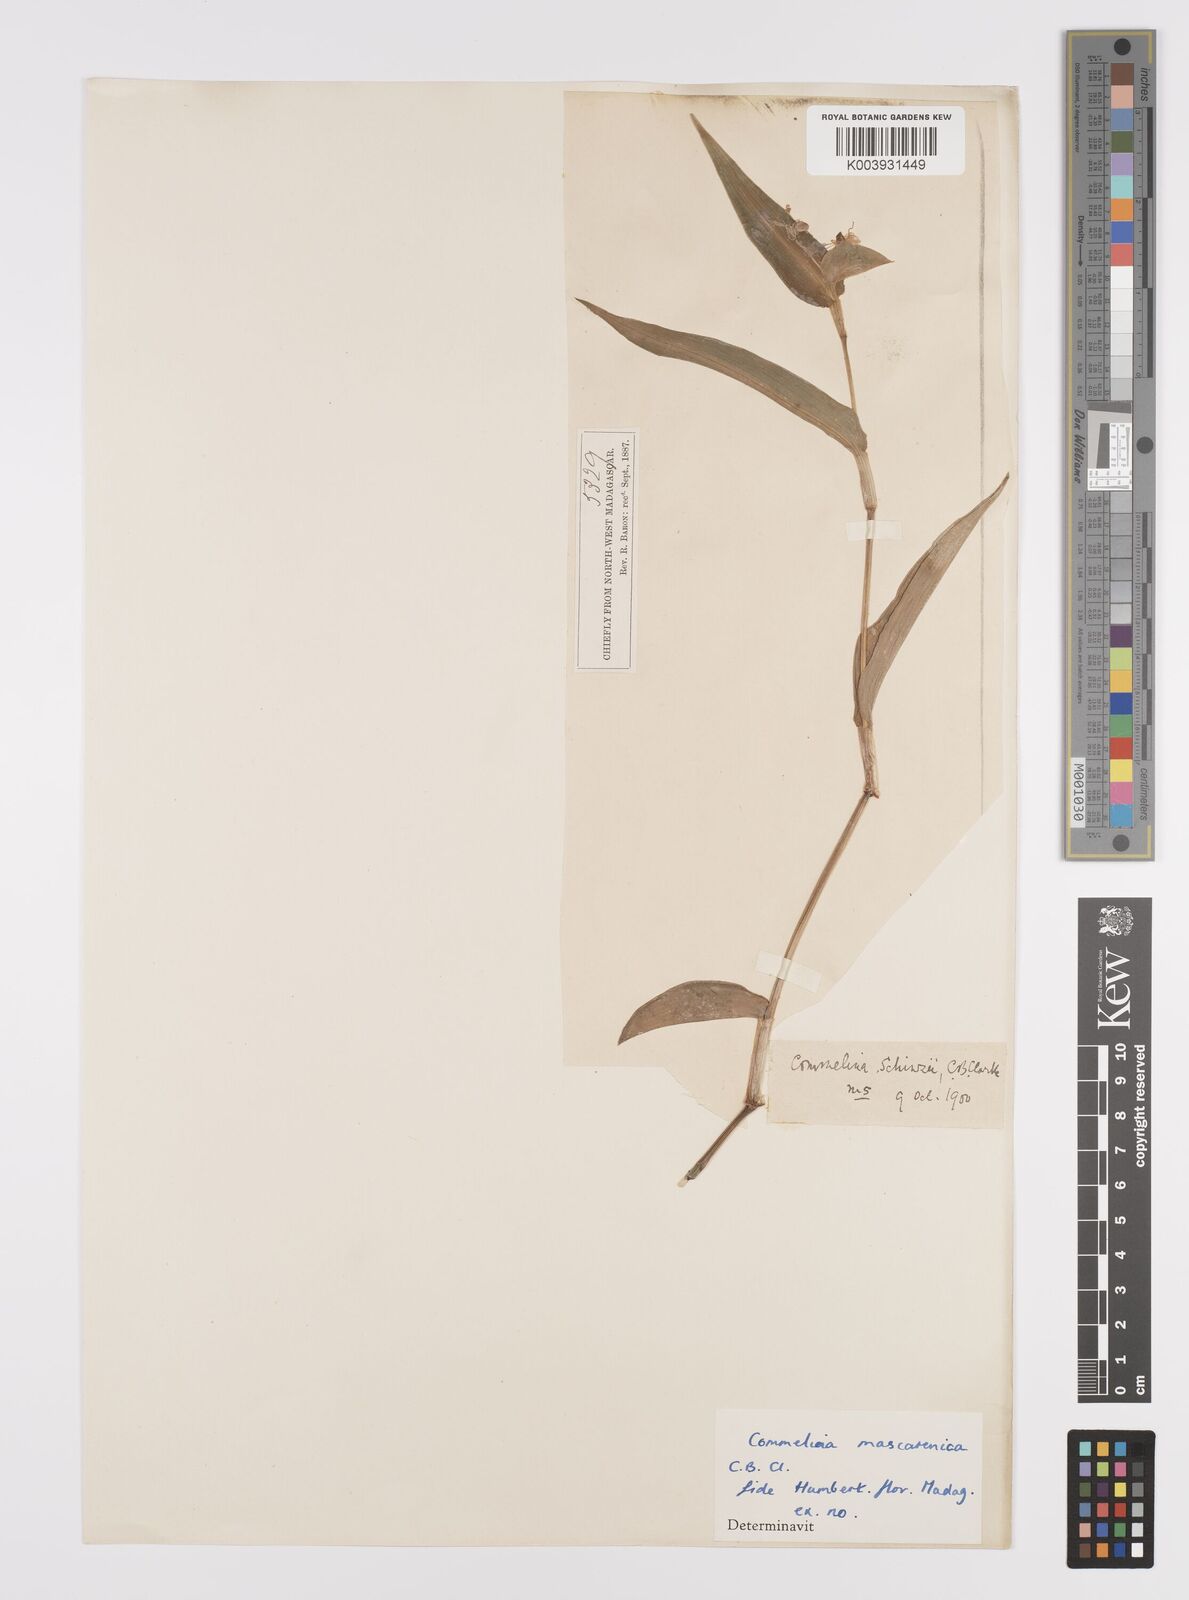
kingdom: Plantae
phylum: Tracheophyta
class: Liliopsida
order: Commelinales
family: Commelinaceae
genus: Commelina
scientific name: Commelina mascarenica
